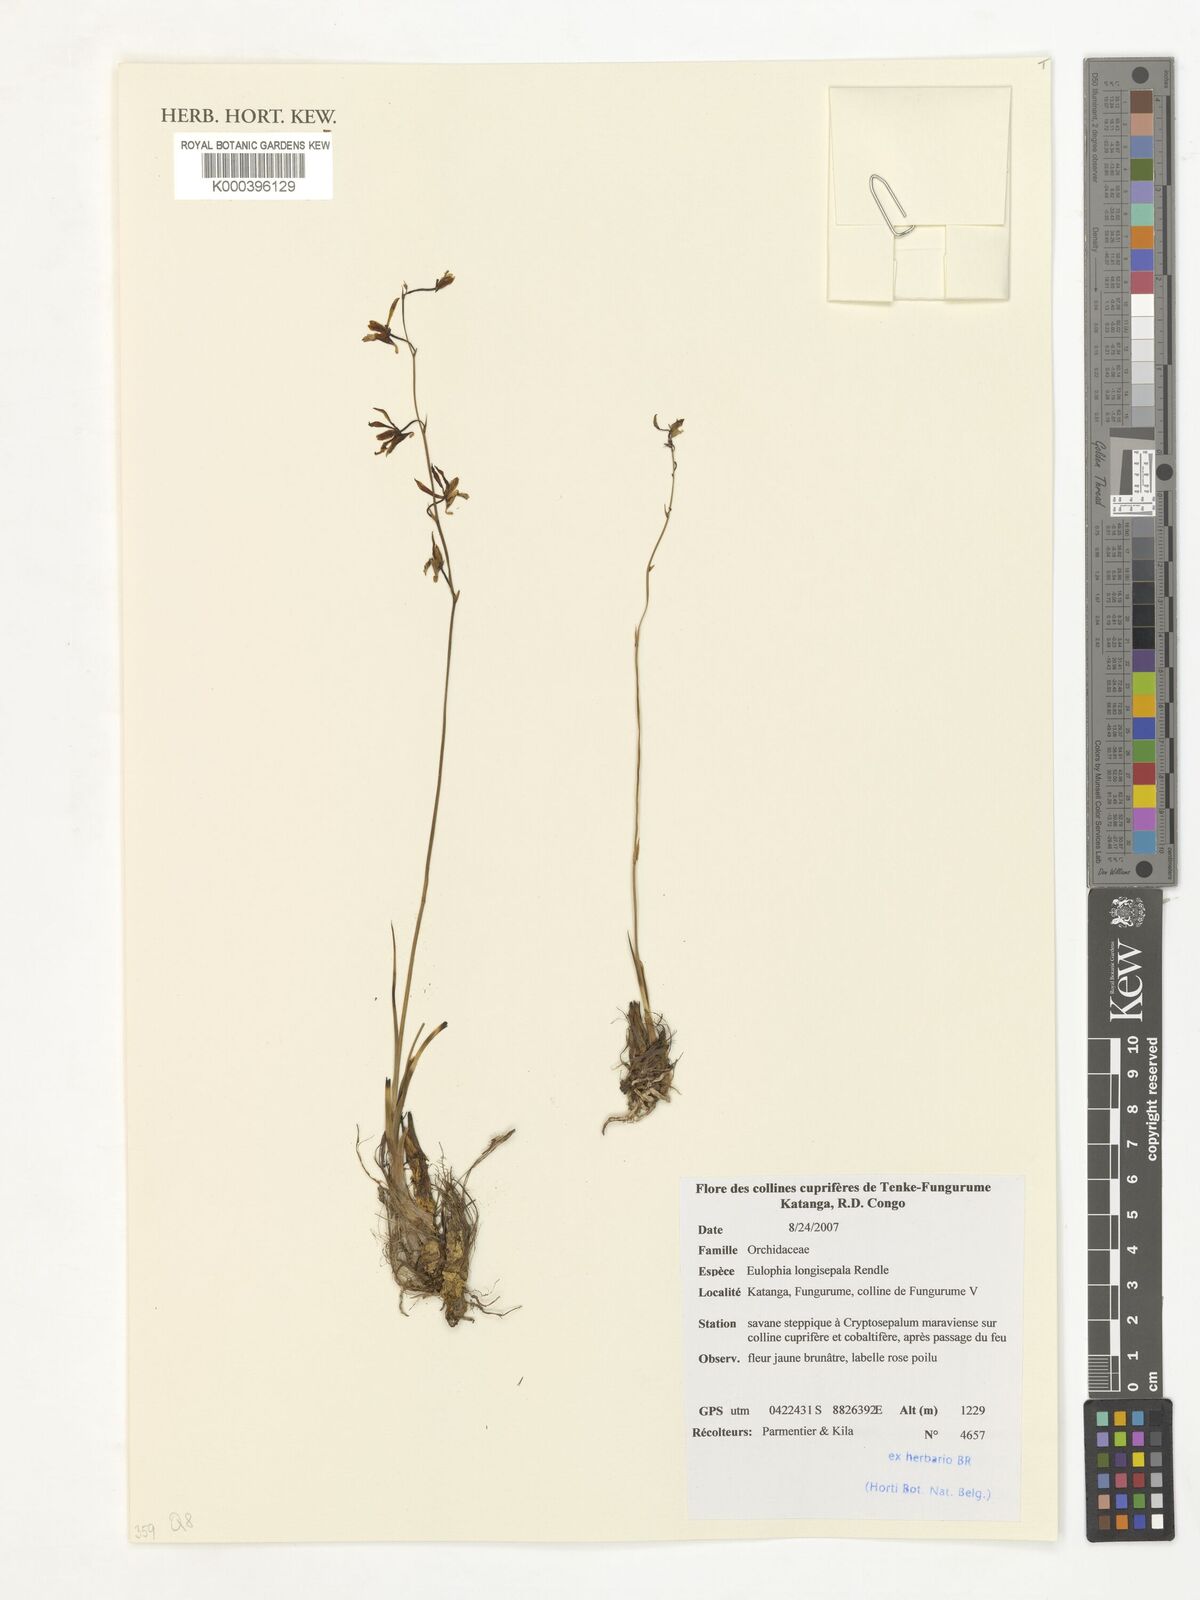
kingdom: Plantae
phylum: Tracheophyta
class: Liliopsida
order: Asparagales
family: Orchidaceae
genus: Eulophia
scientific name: Eulophia longisepala
